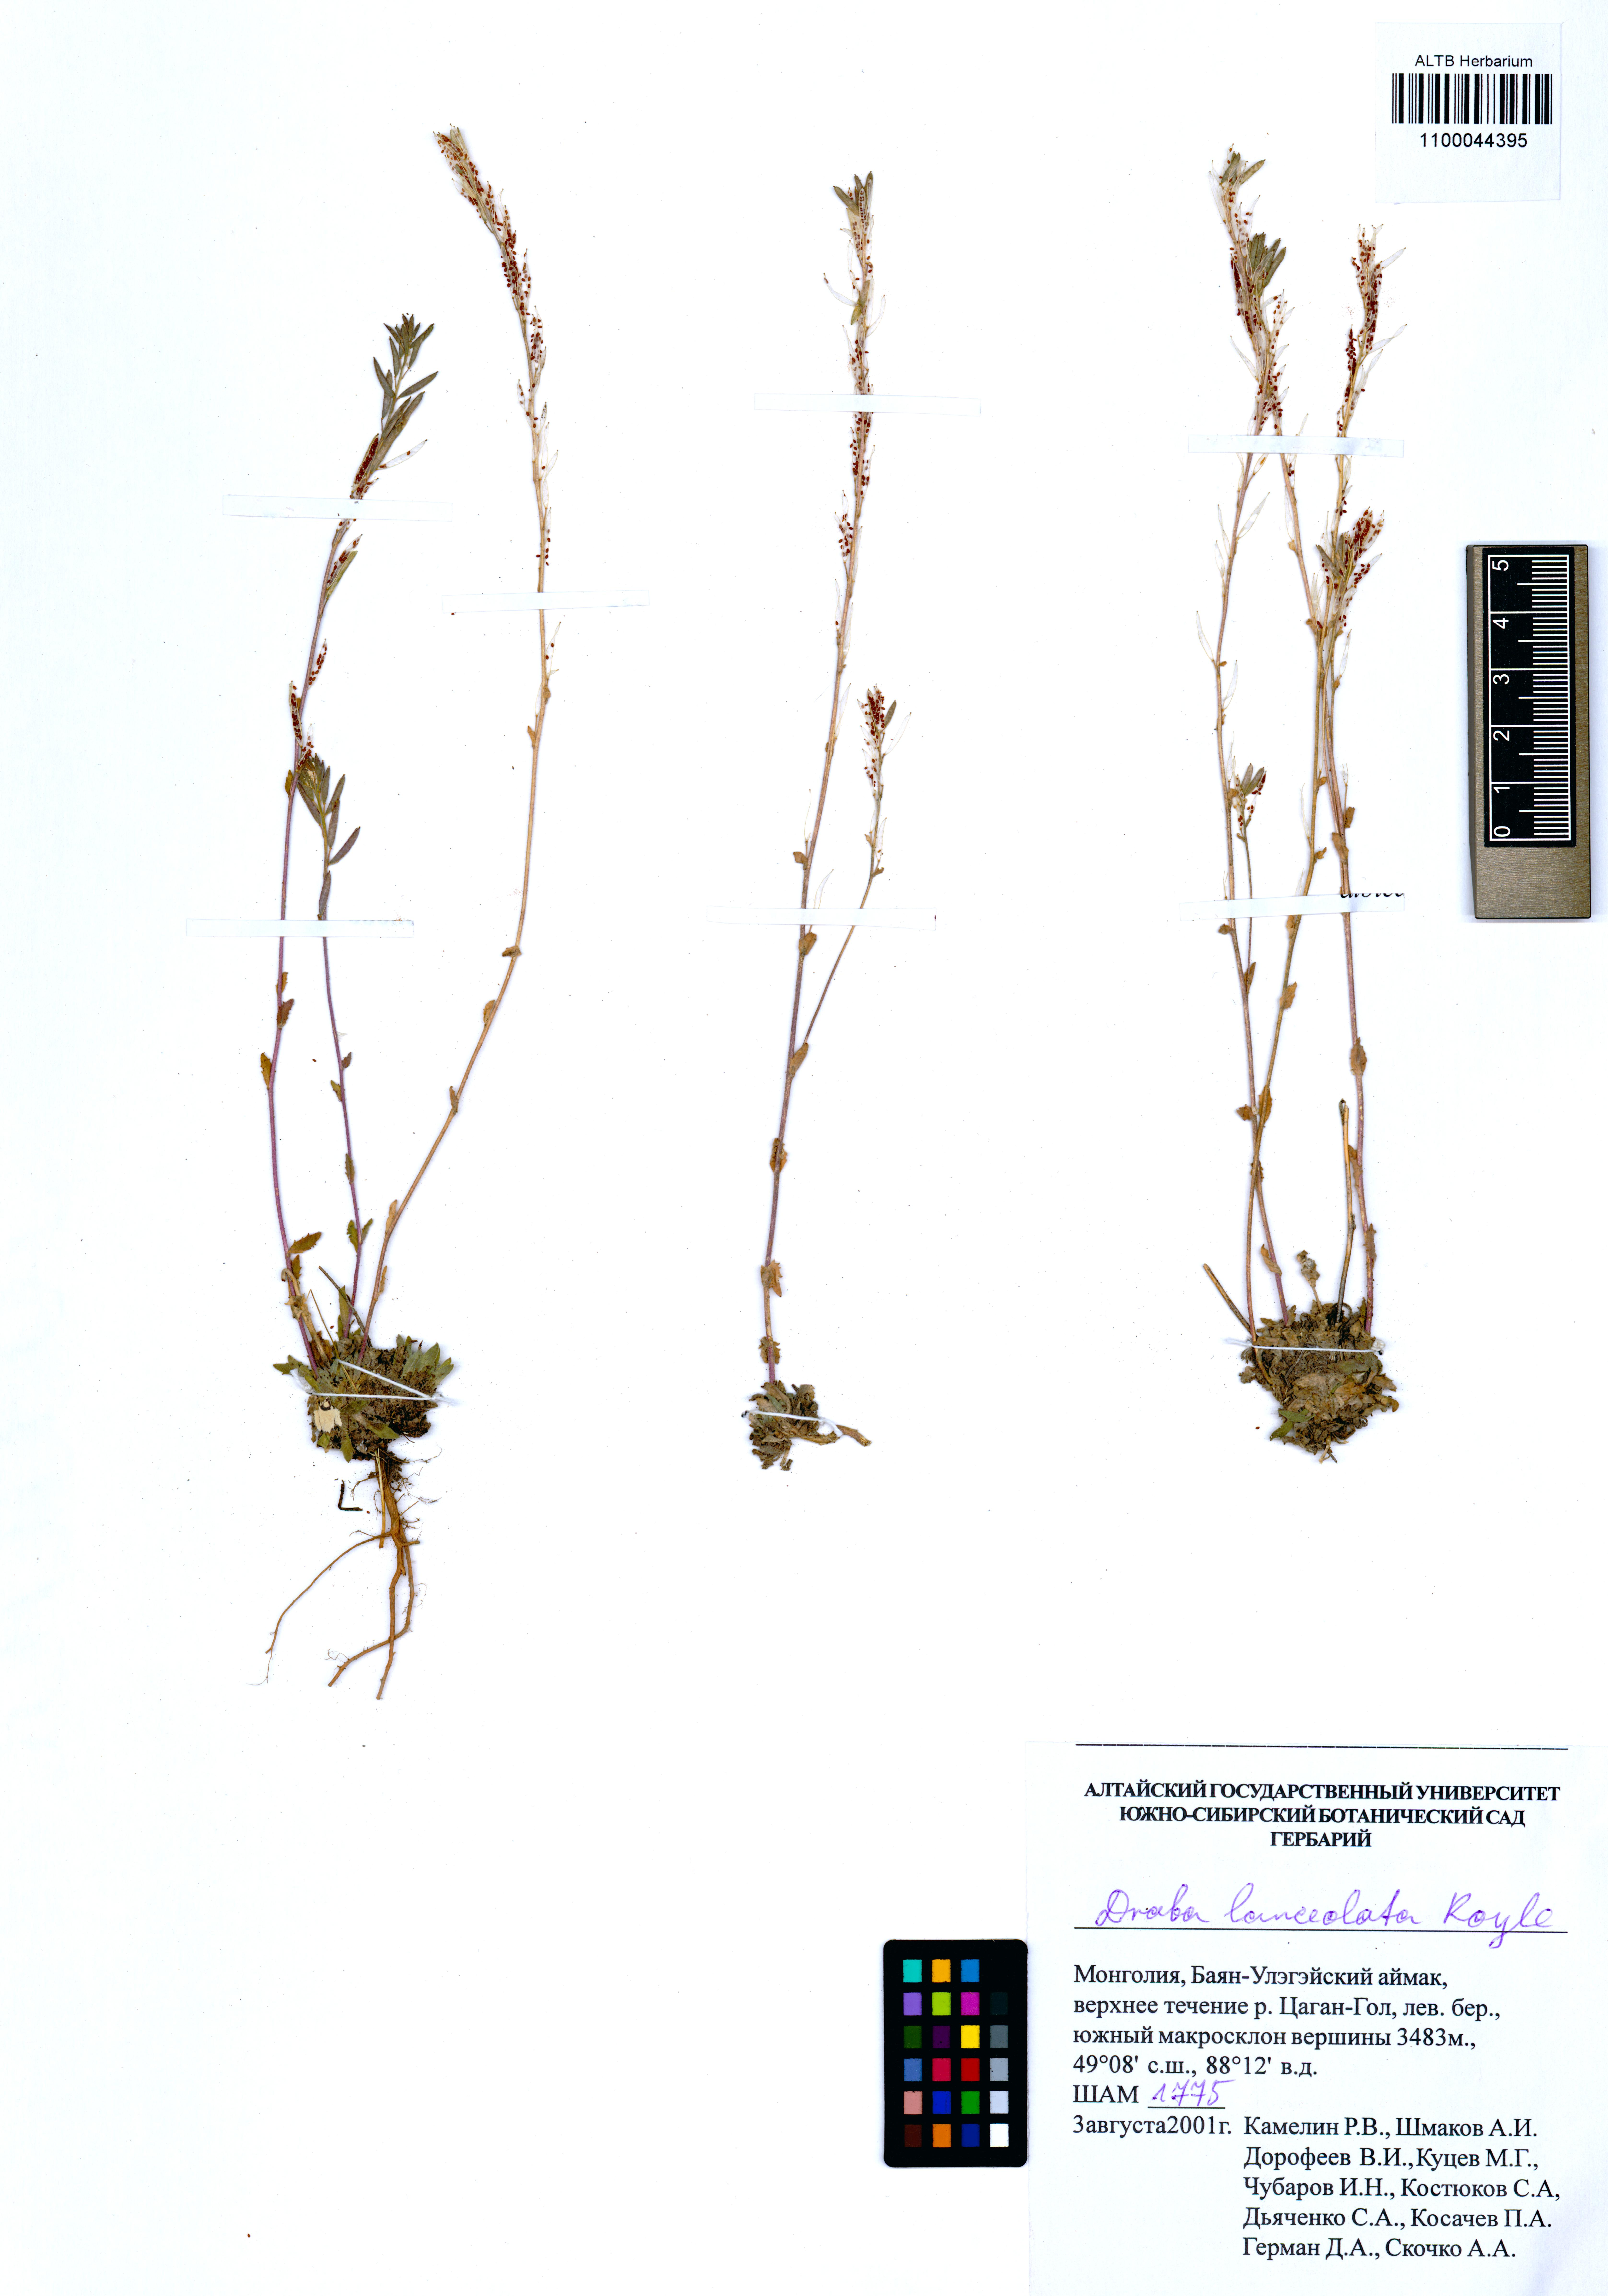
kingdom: Plantae
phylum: Tracheophyta
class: Magnoliopsida
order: Brassicales
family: Brassicaceae
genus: Draba
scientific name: Draba lanceolata
